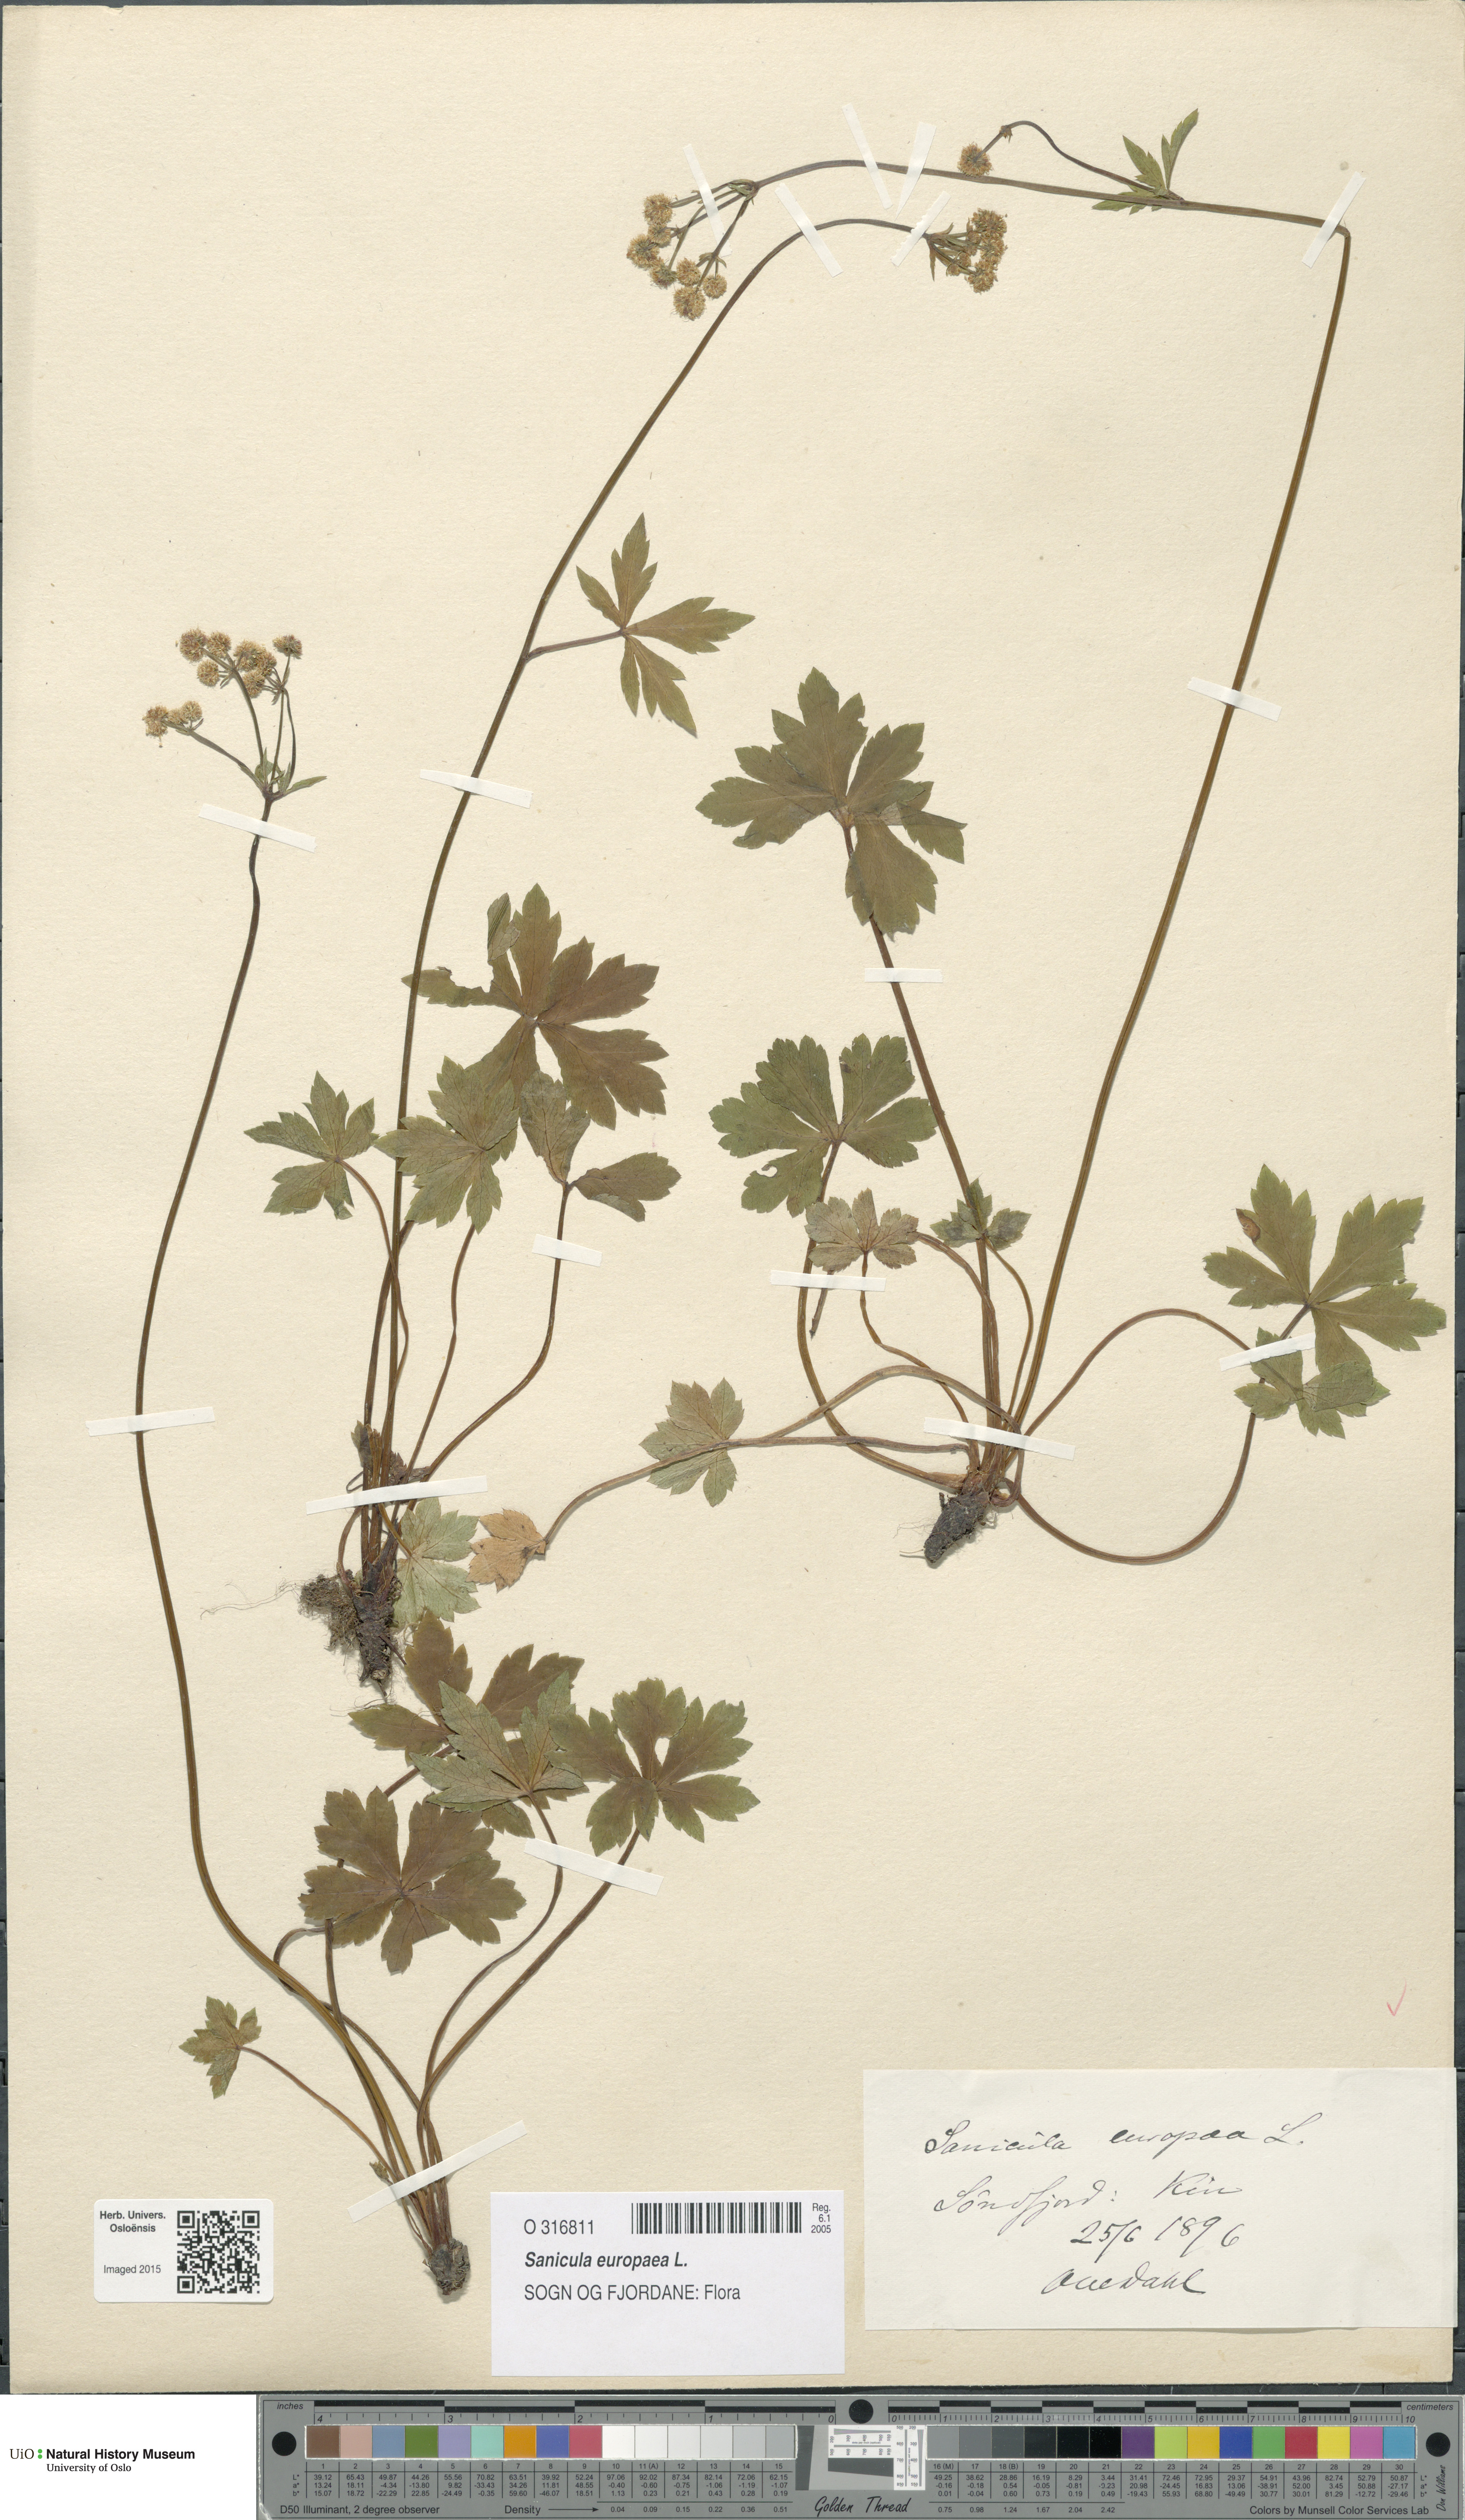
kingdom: Plantae
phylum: Tracheophyta
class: Magnoliopsida
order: Apiales
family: Apiaceae
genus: Sanicula
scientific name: Sanicula europaea
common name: Sanicle
